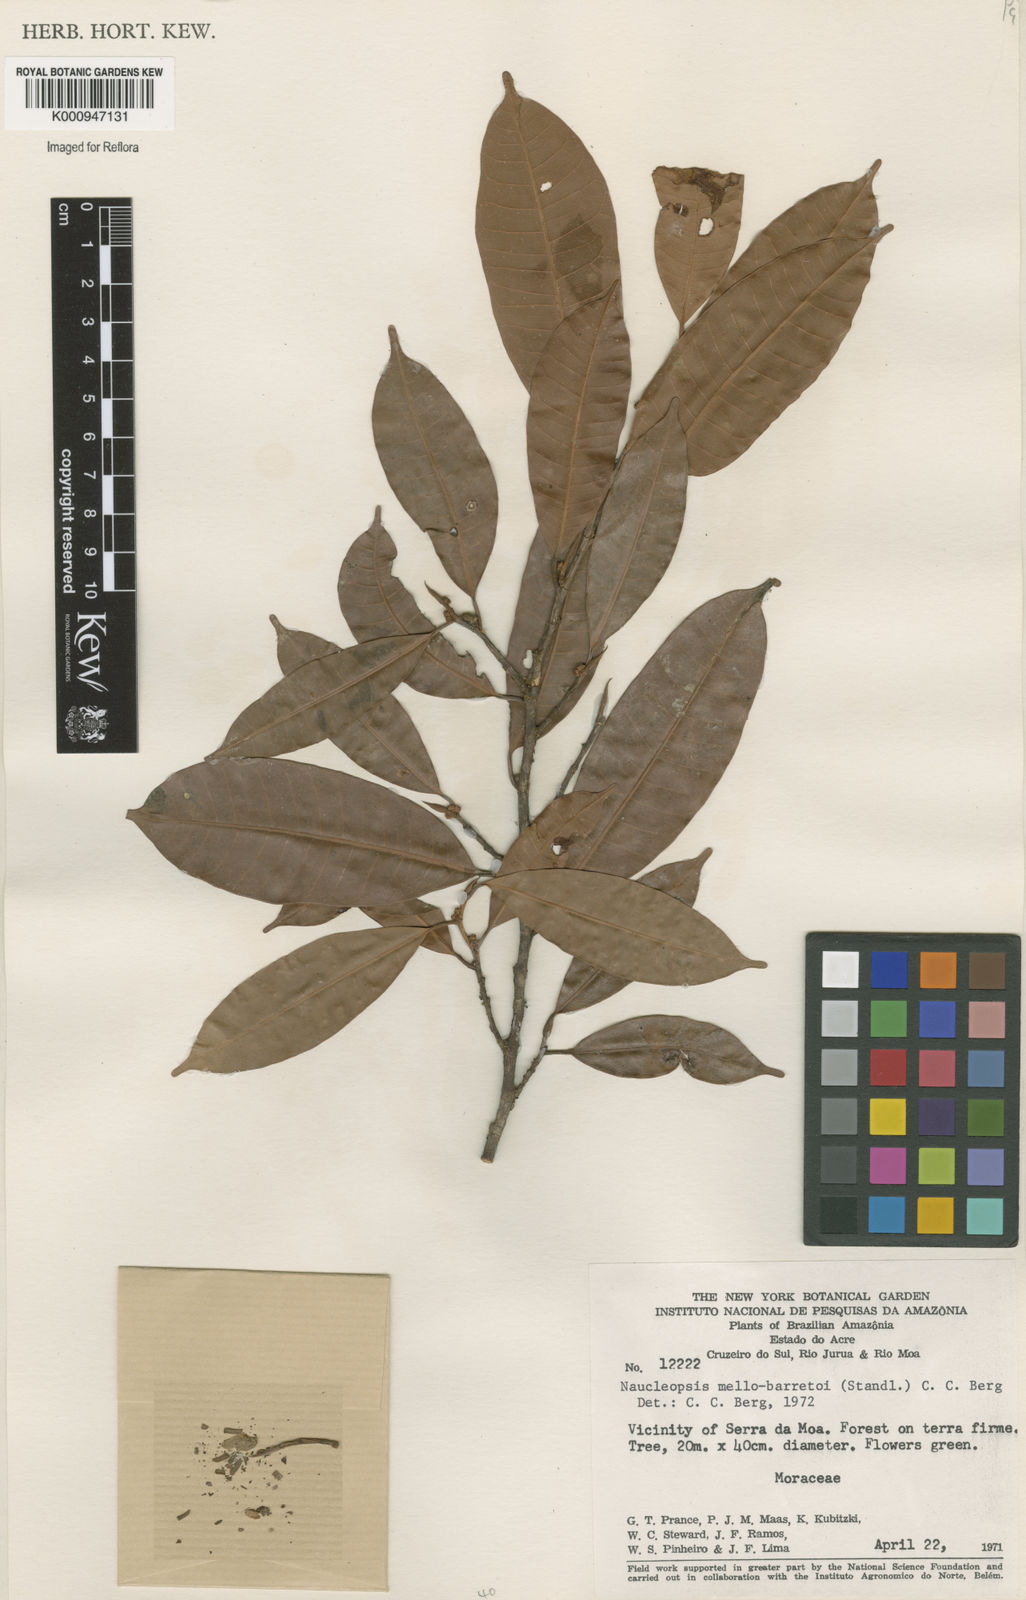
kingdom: Plantae
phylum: Tracheophyta
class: Magnoliopsida
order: Rosales
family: Moraceae
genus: Naucleopsis
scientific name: Naucleopsis oblongifolia
